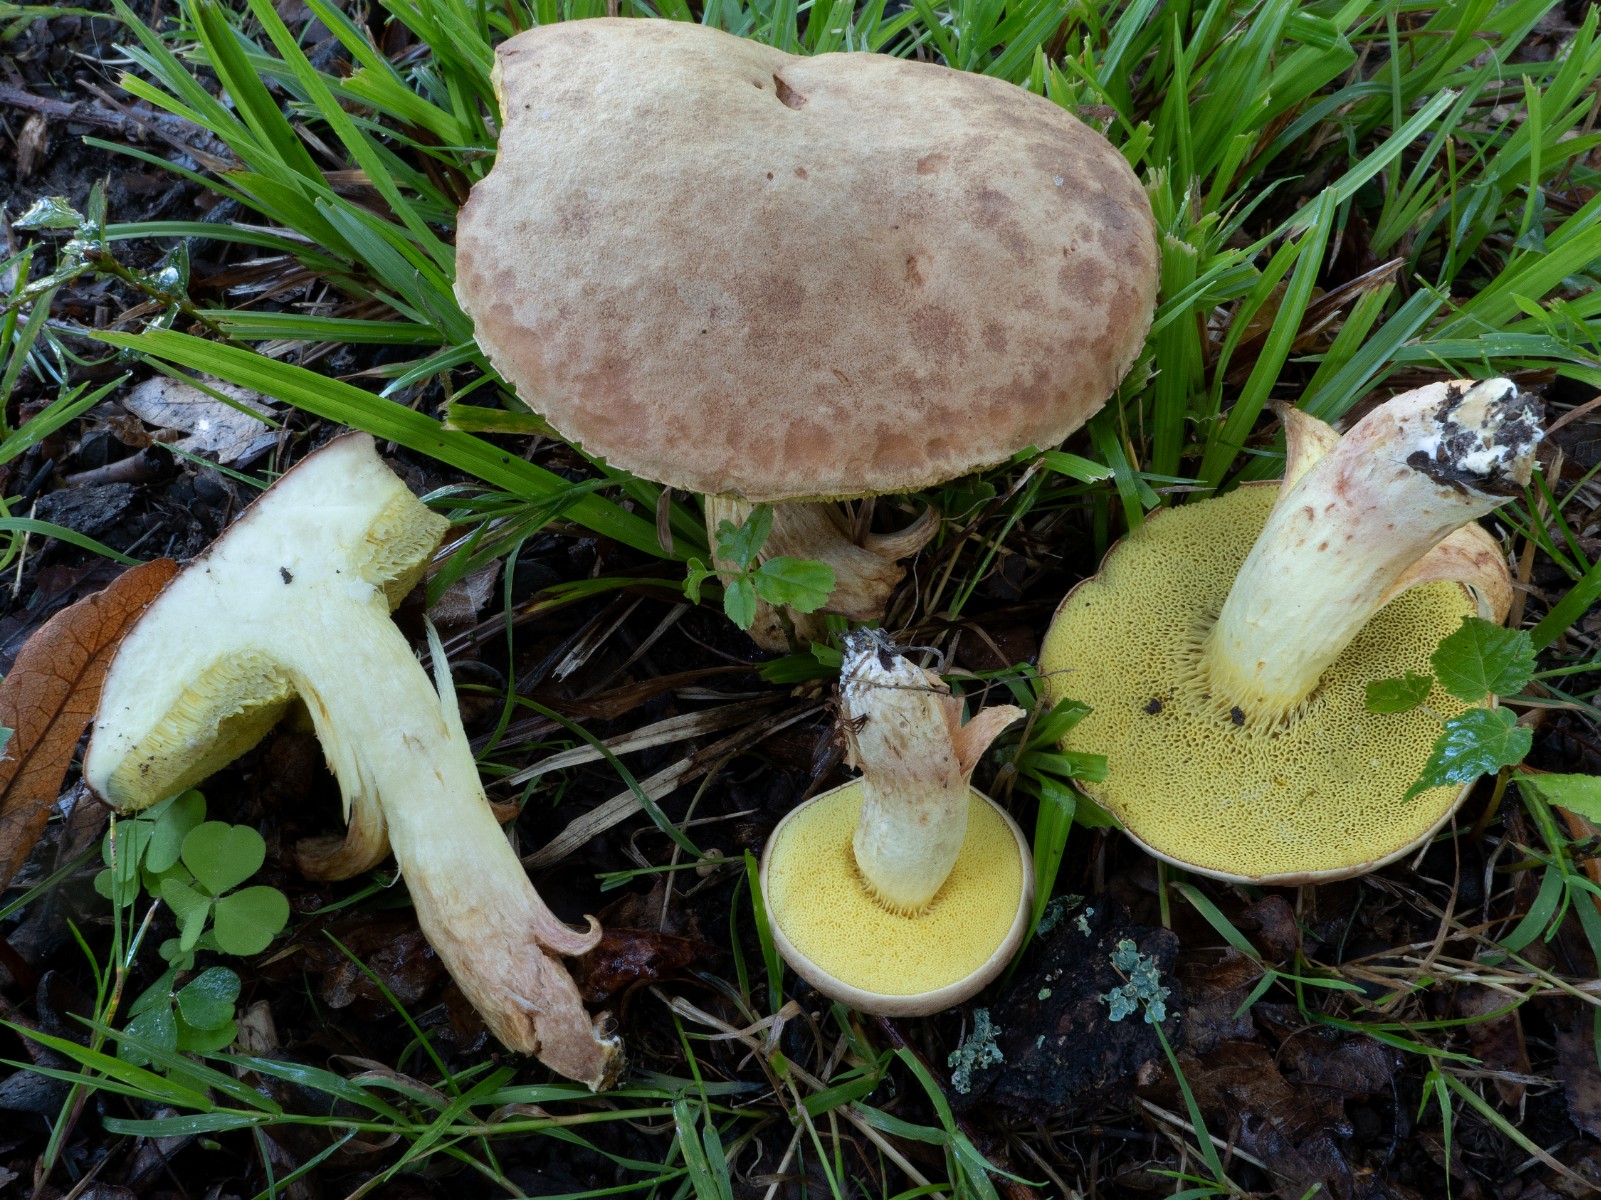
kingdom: Fungi
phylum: Basidiomycota
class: Agaricomycetes
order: Boletales
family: Boletaceae
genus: Xerocomus
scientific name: Xerocomus ferrugineus
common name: vaskeskinds-rørhat
